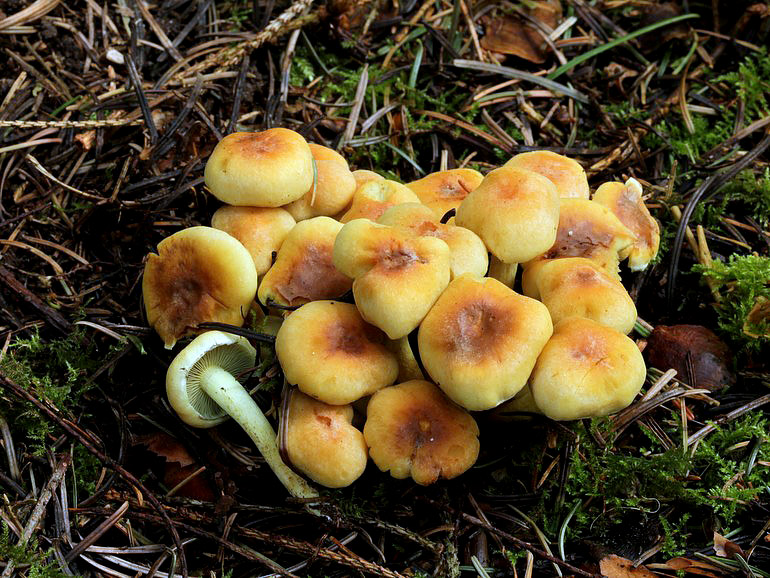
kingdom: Fungi
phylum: Basidiomycota
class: Agaricomycetes
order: Agaricales
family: Strophariaceae
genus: Hypholoma
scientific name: Hypholoma fasciculare
